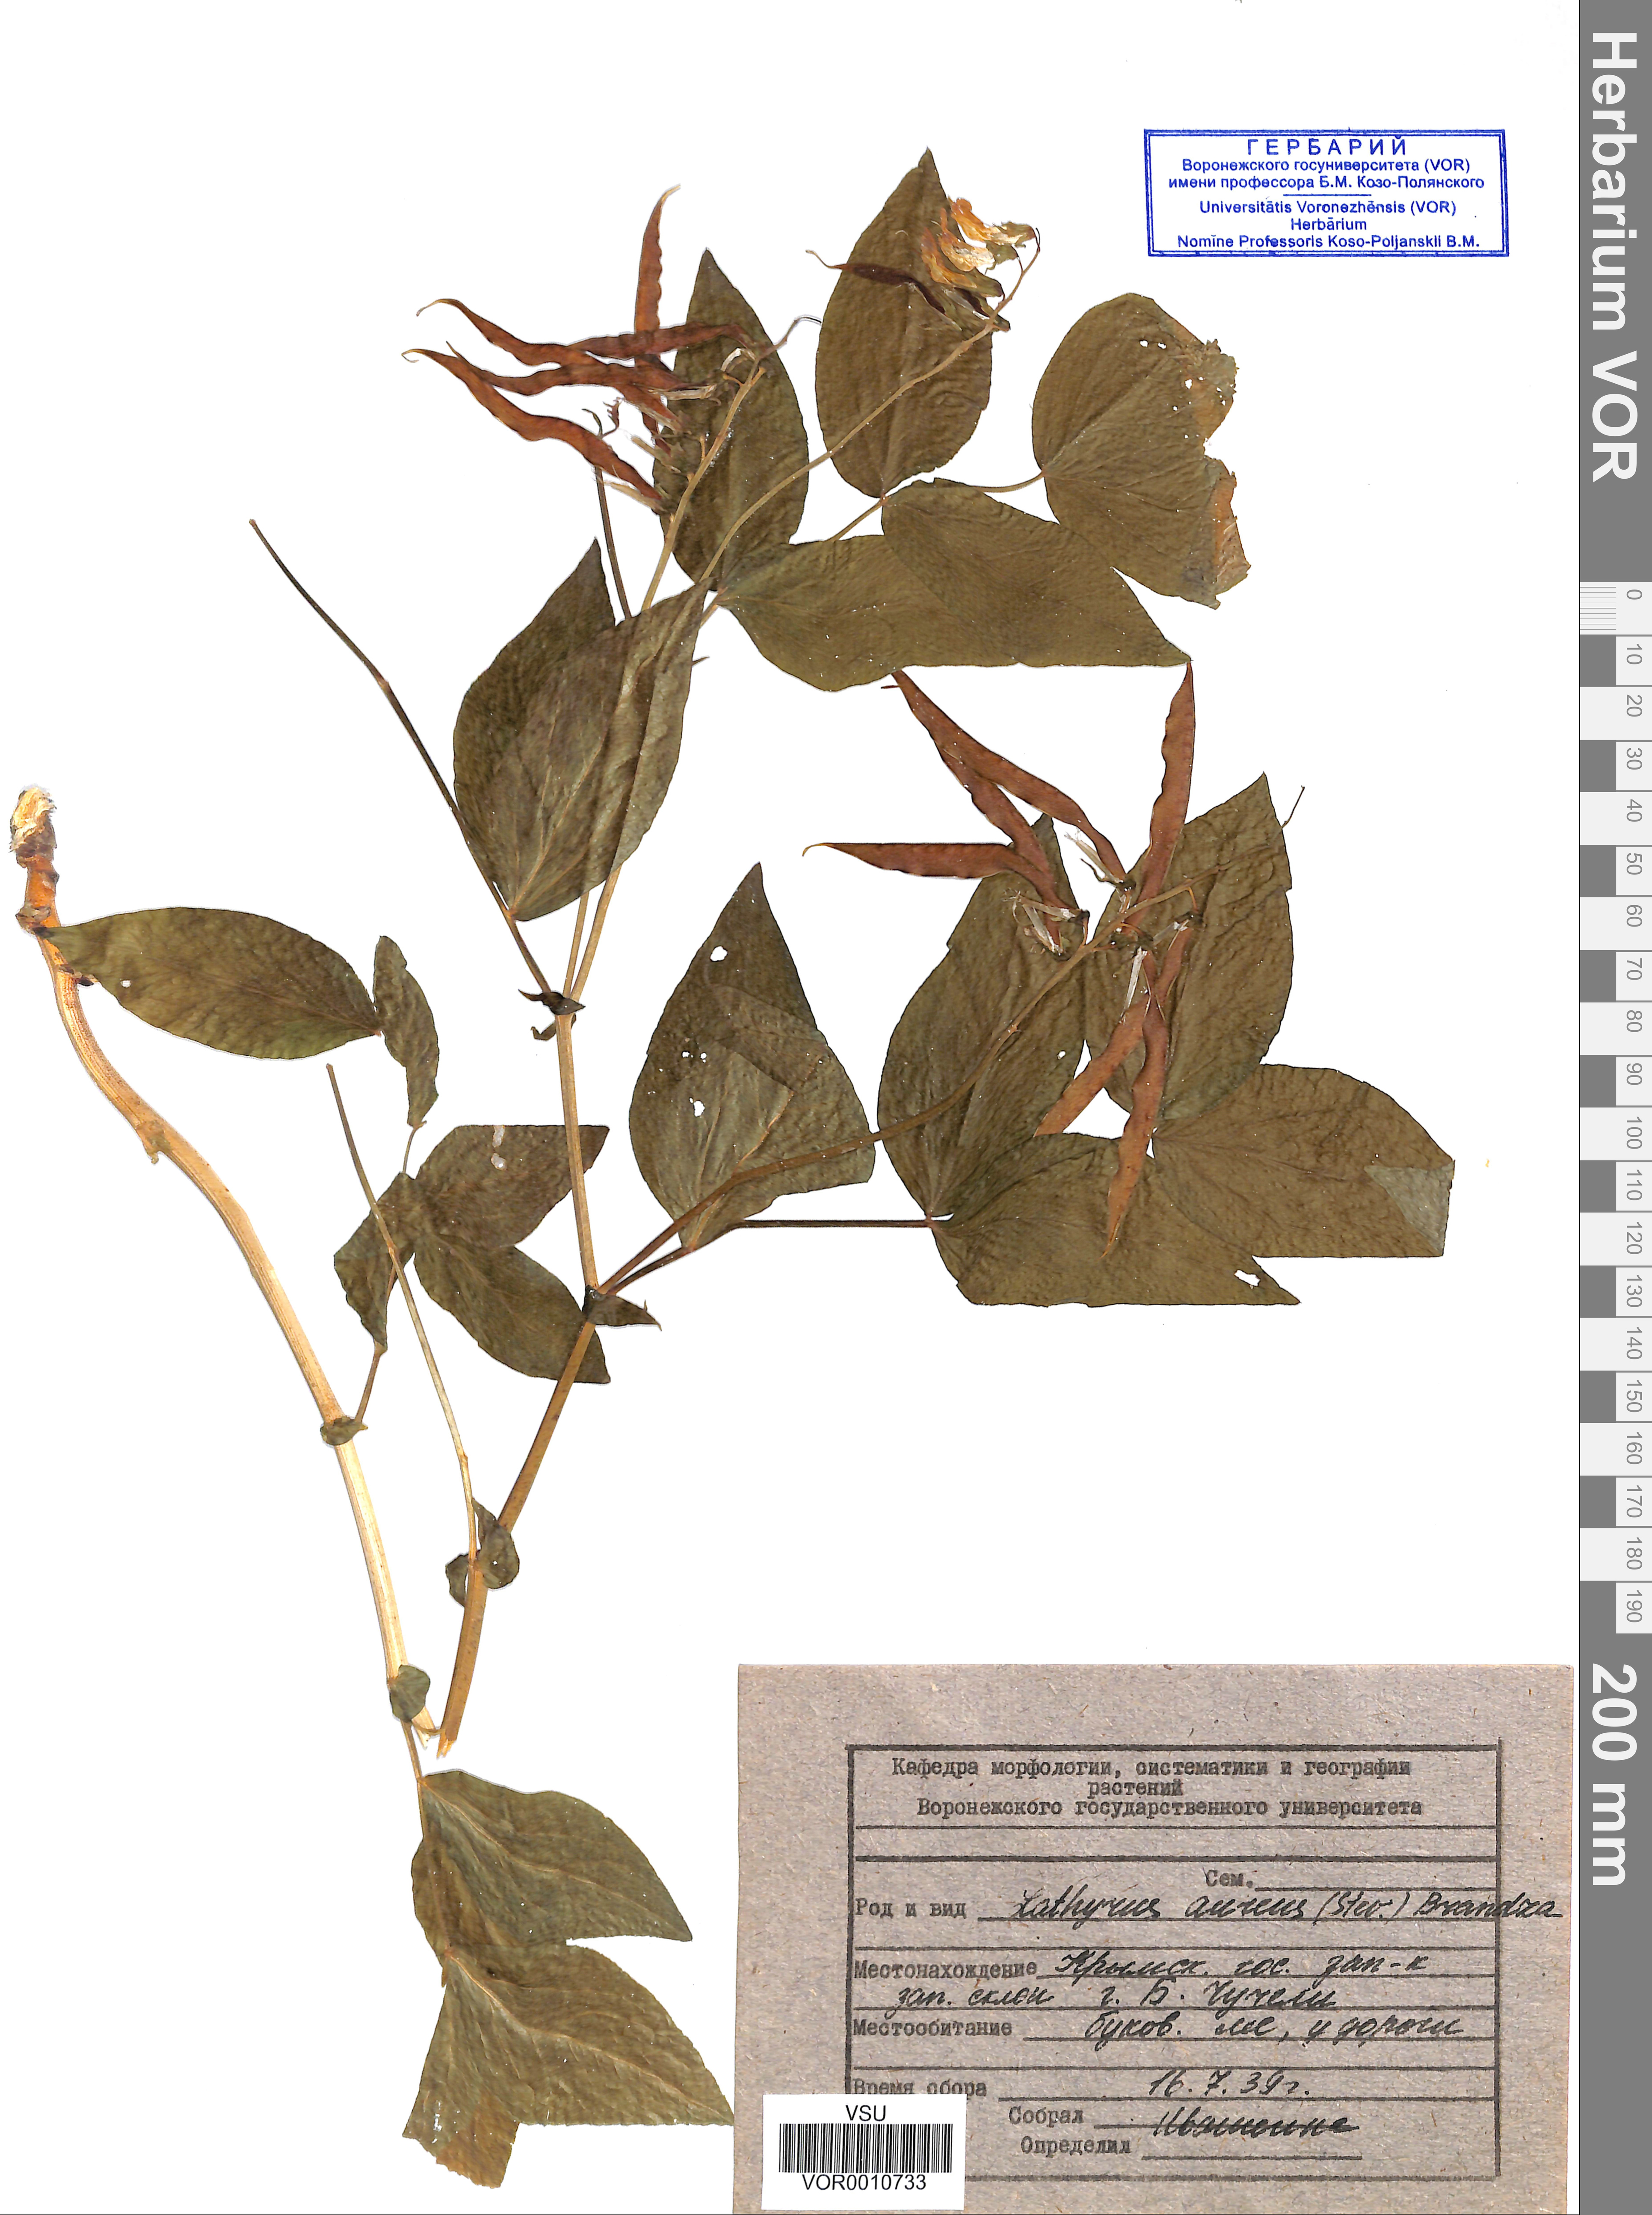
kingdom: Plantae
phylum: Tracheophyta
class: Magnoliopsida
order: Fabales
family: Fabaceae
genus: Lathyrus
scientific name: Lathyrus aureus
